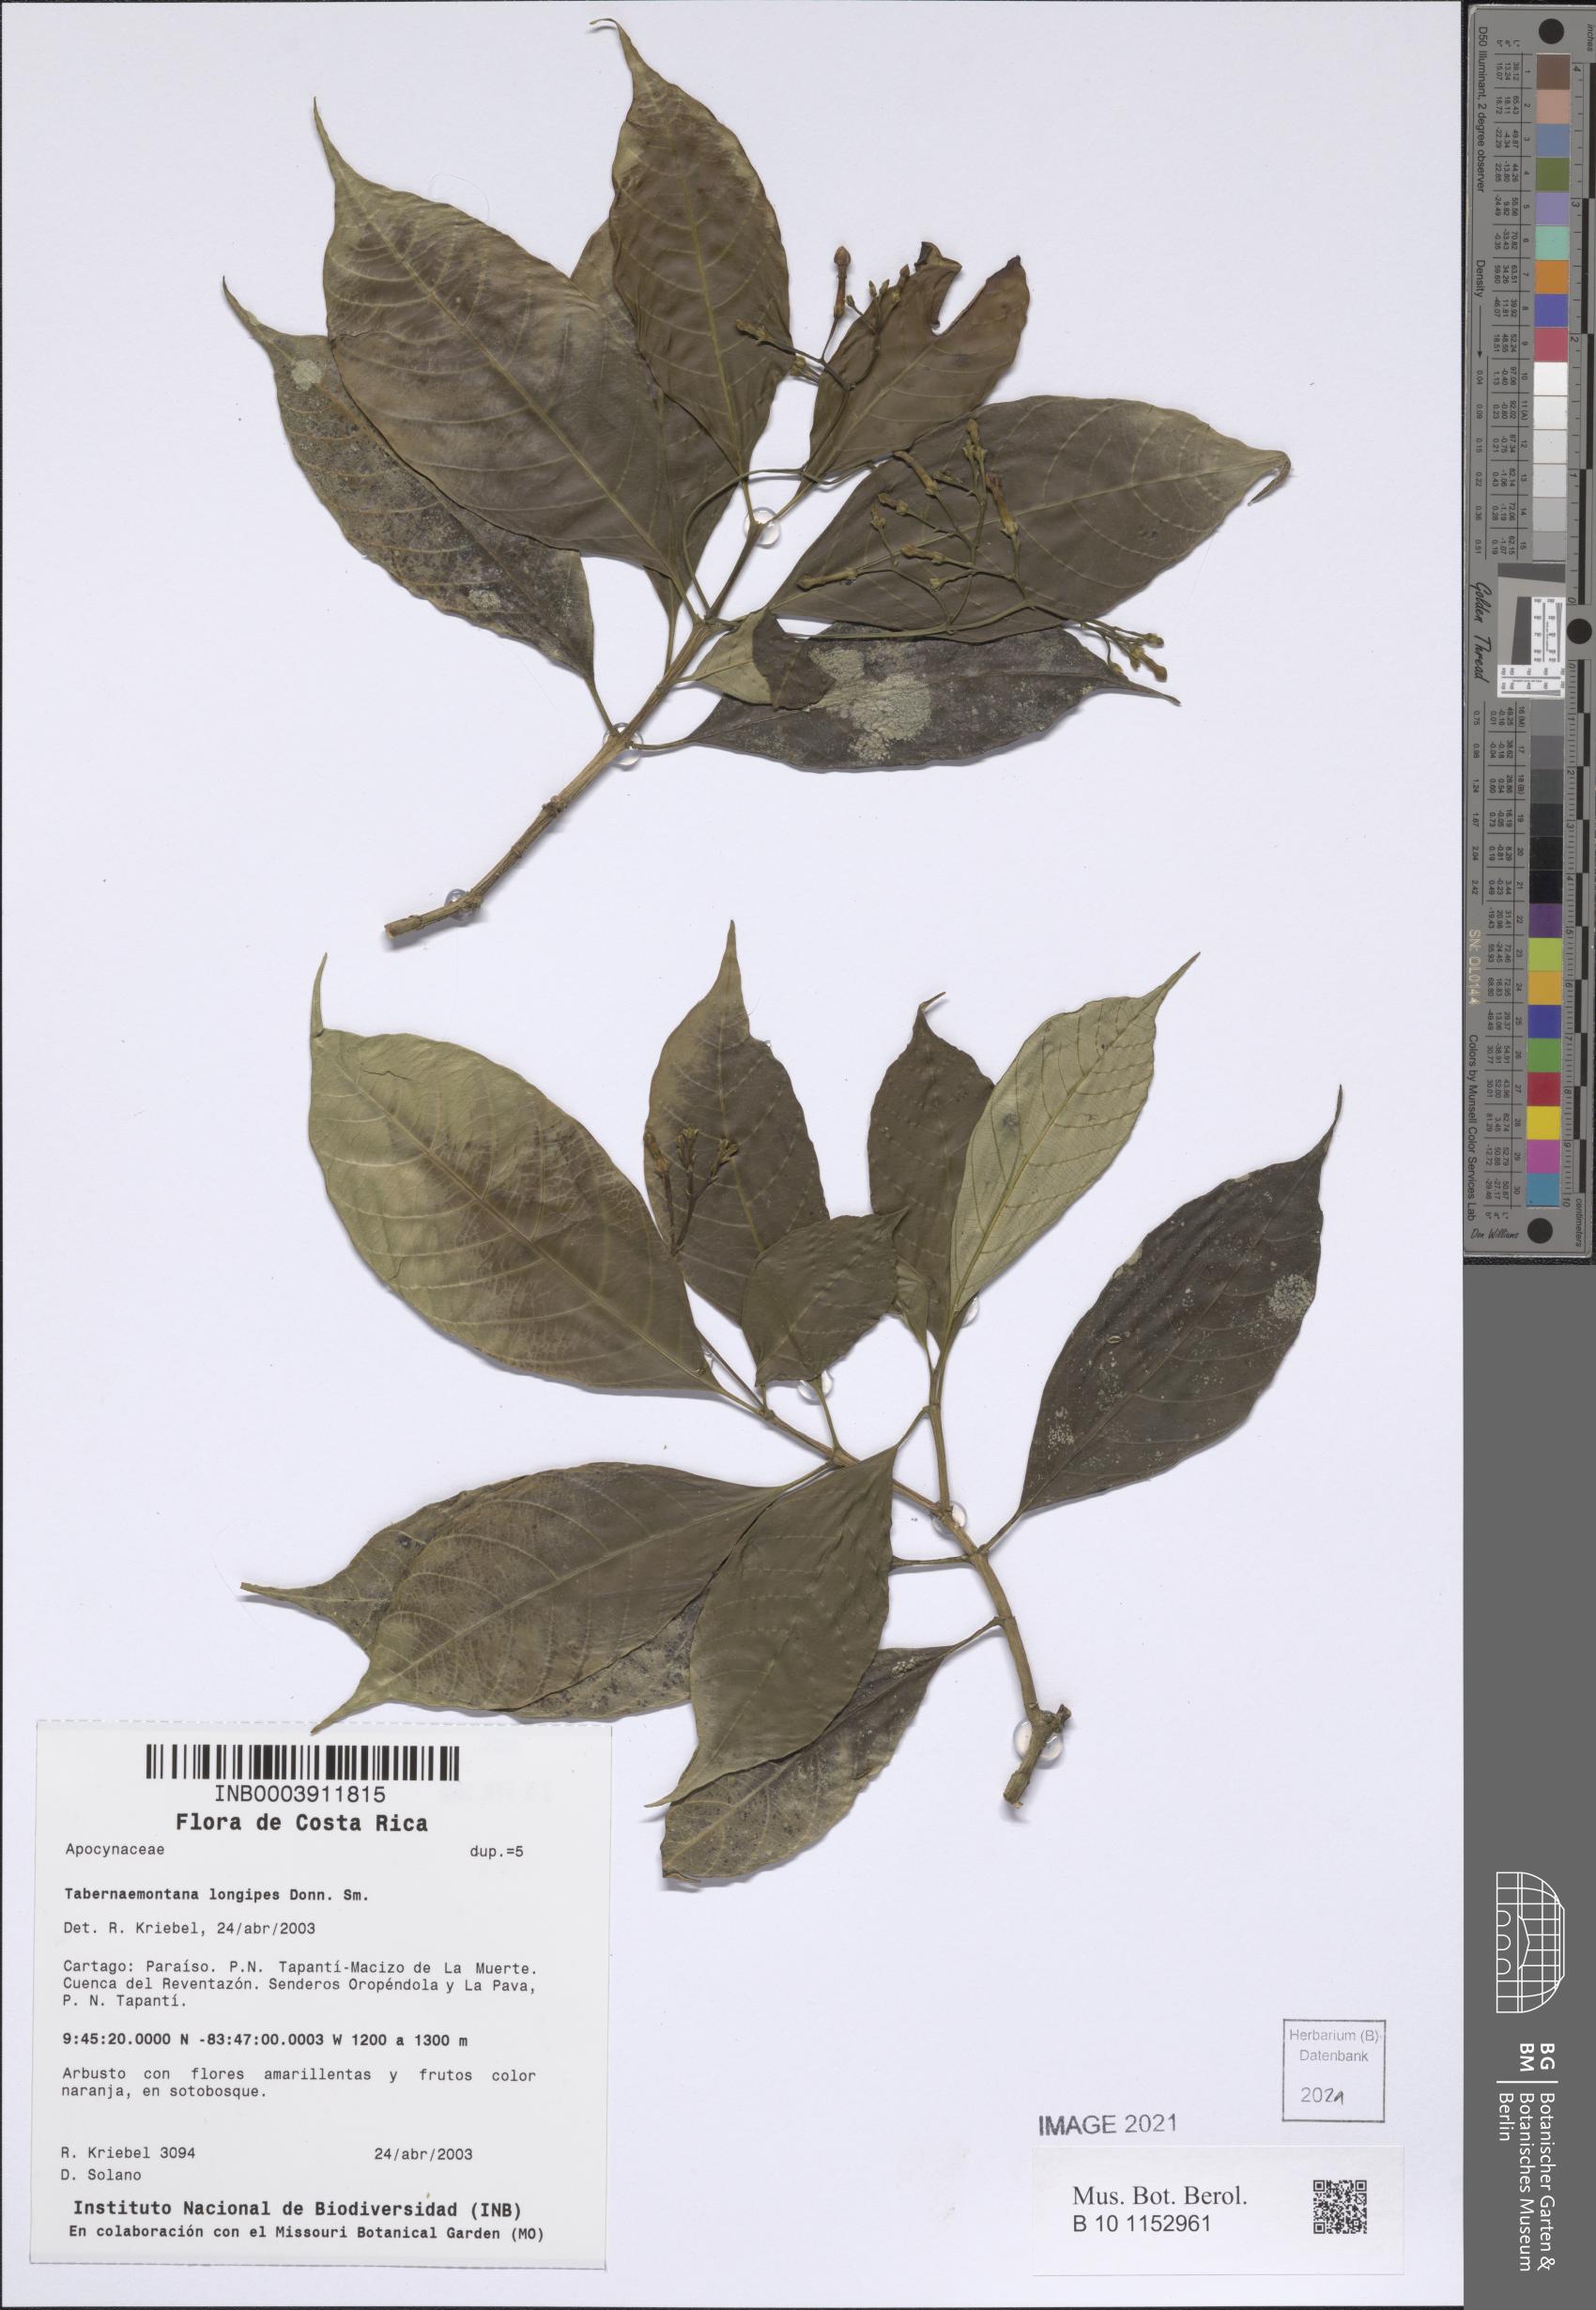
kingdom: Plantae
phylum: Tracheophyta
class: Magnoliopsida
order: Gentianales
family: Apocynaceae
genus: Tabernaemontana
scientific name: Tabernaemontana longipes
